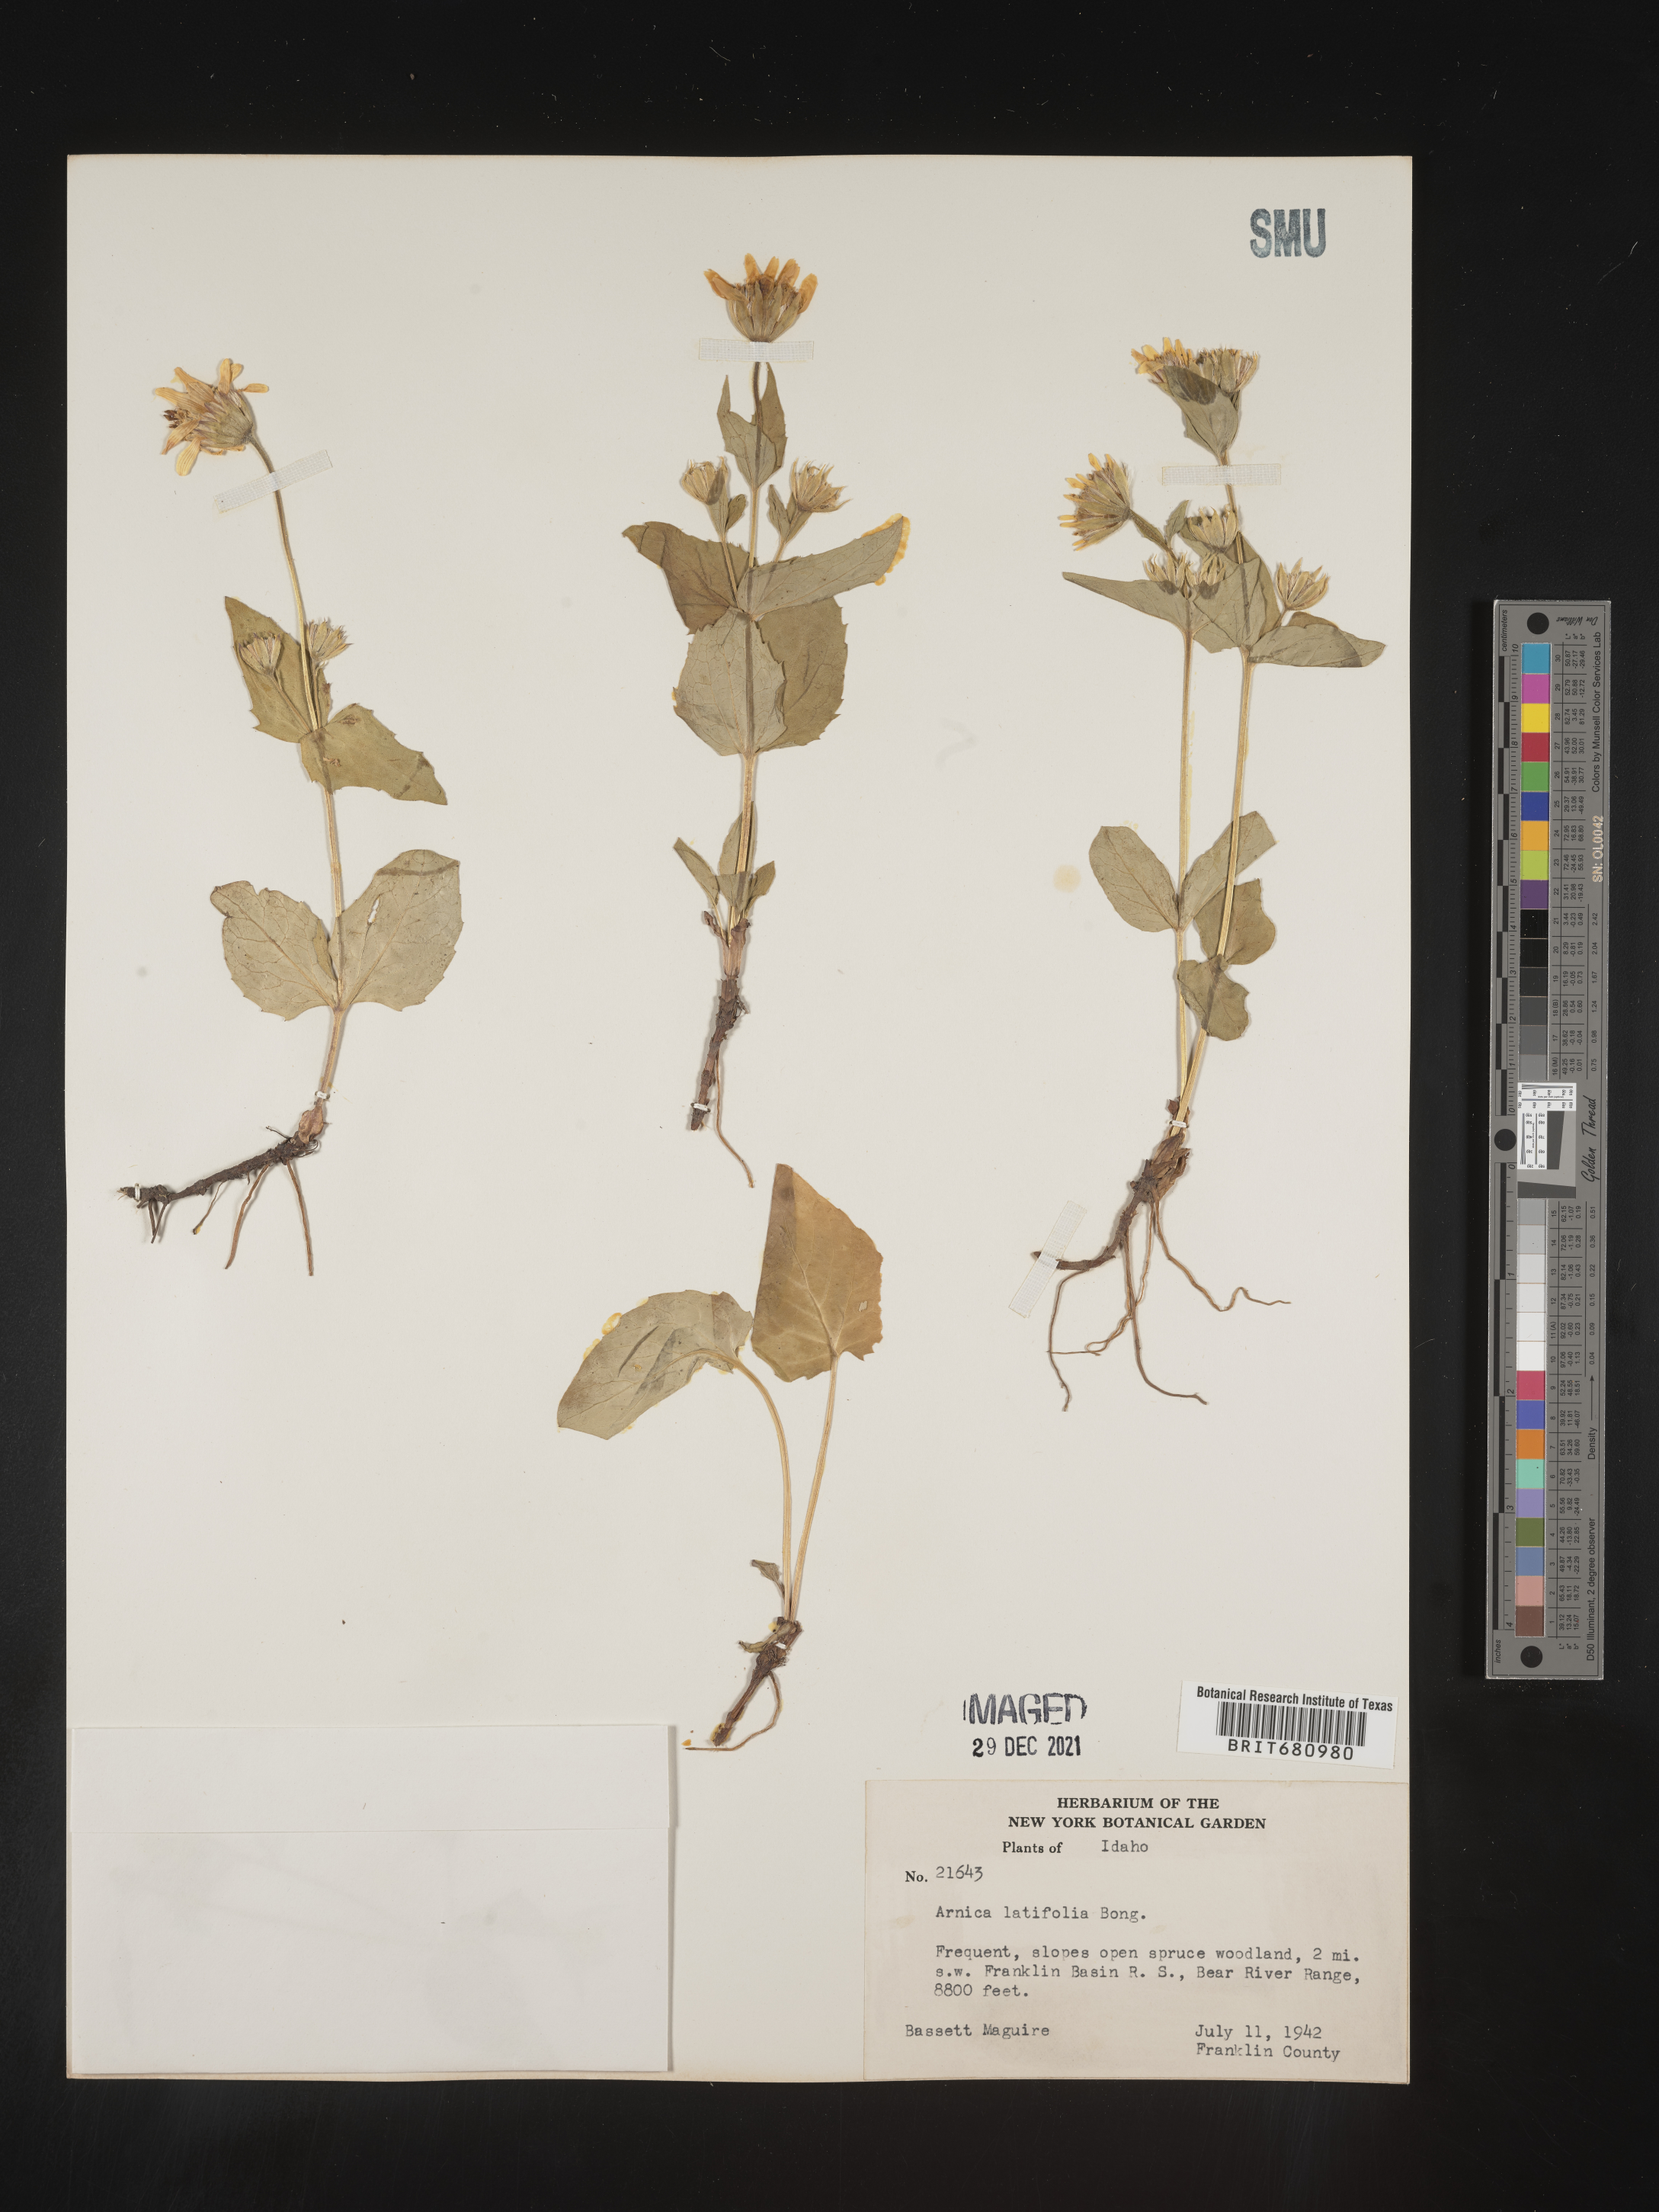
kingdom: Plantae
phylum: Tracheophyta
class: Magnoliopsida
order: Asterales
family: Asteraceae
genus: Arnica
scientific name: Arnica latifolia
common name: Arnica
